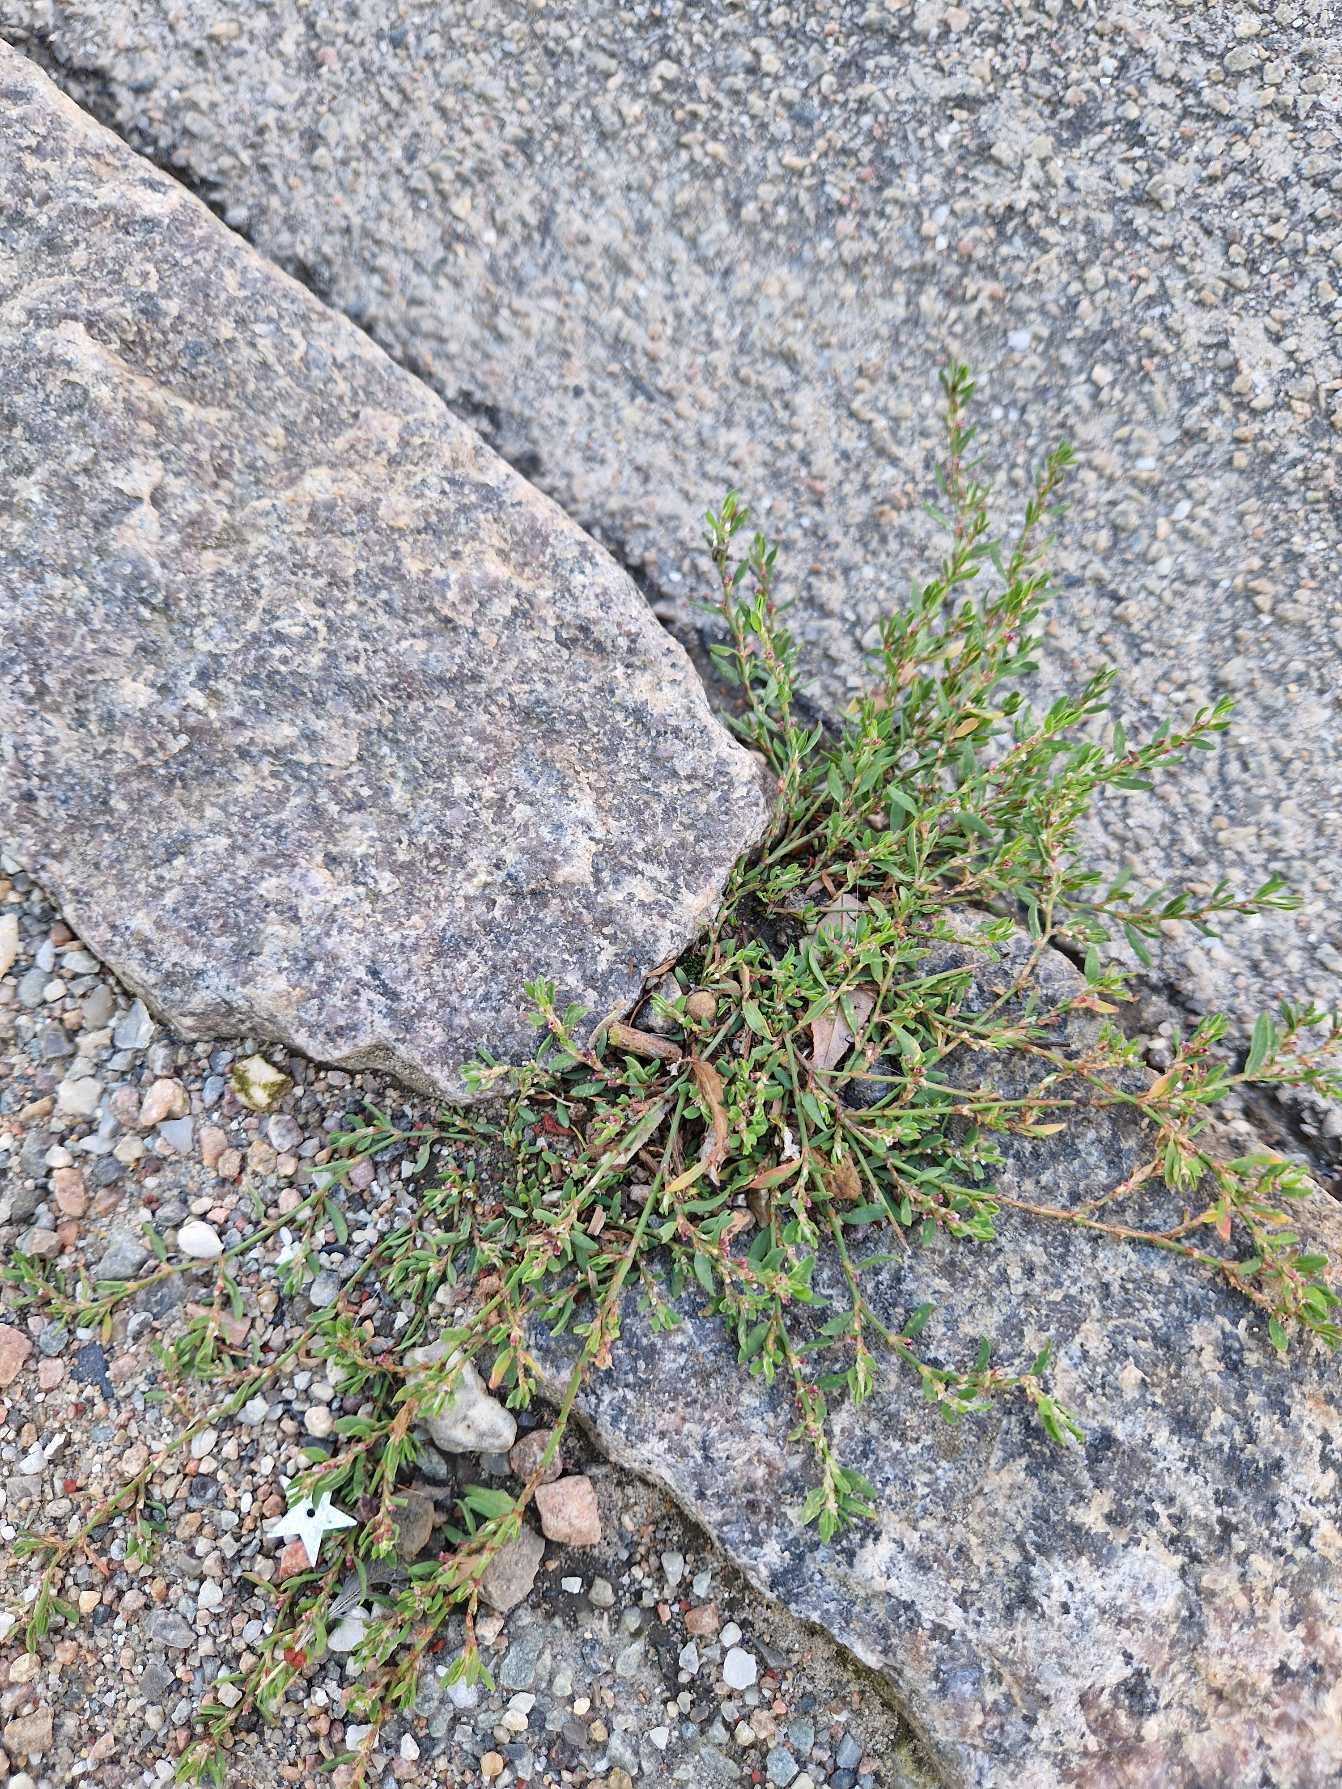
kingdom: Plantae
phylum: Tracheophyta
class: Magnoliopsida
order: Caryophyllales
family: Polygonaceae
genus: Polygonum
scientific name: Polygonum arenastrum
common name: Liggende vej-pileurt
